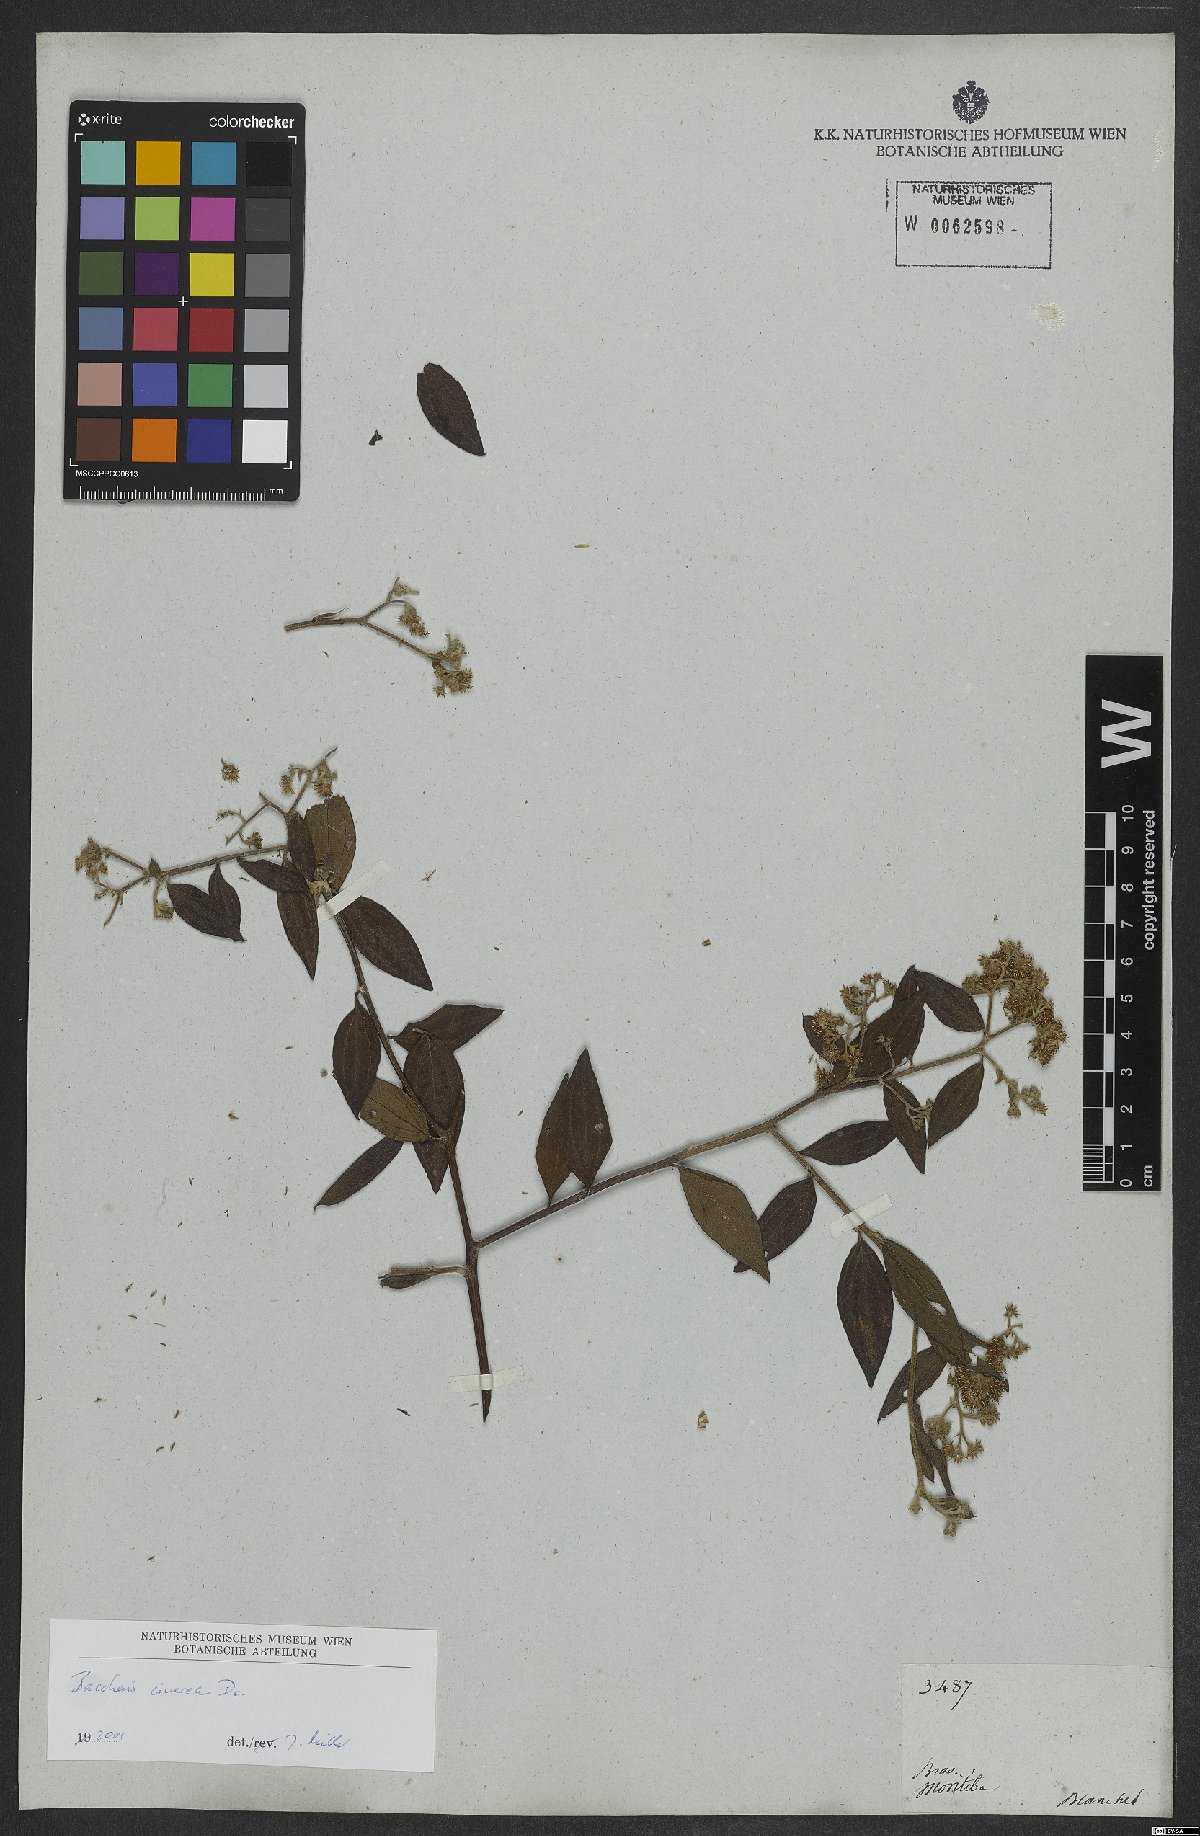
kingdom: Plantae
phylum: Tracheophyta
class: Magnoliopsida
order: Asterales
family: Asteraceae
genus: Baccharis
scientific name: Baccharis trinervis
